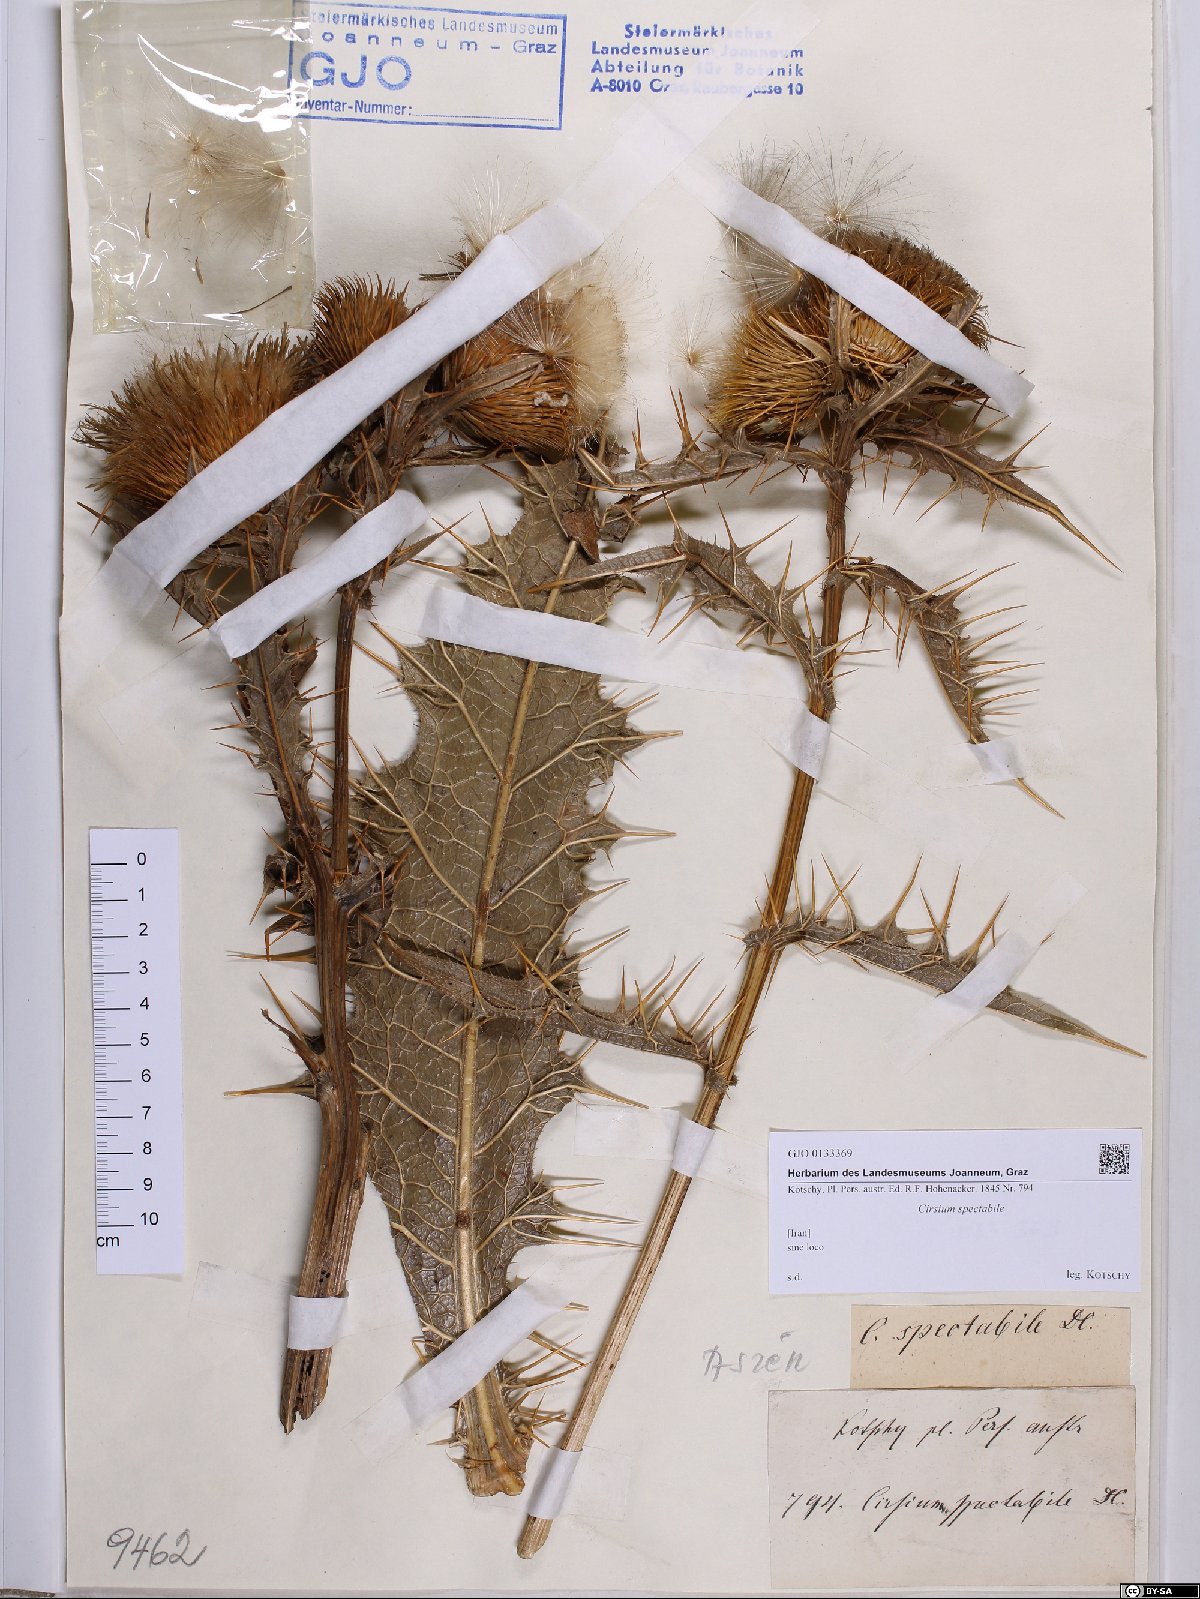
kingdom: Plantae
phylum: Tracheophyta
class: Magnoliopsida
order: Asterales
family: Asteraceae
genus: Lophiolepis
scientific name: Lophiolepis spectabilis
